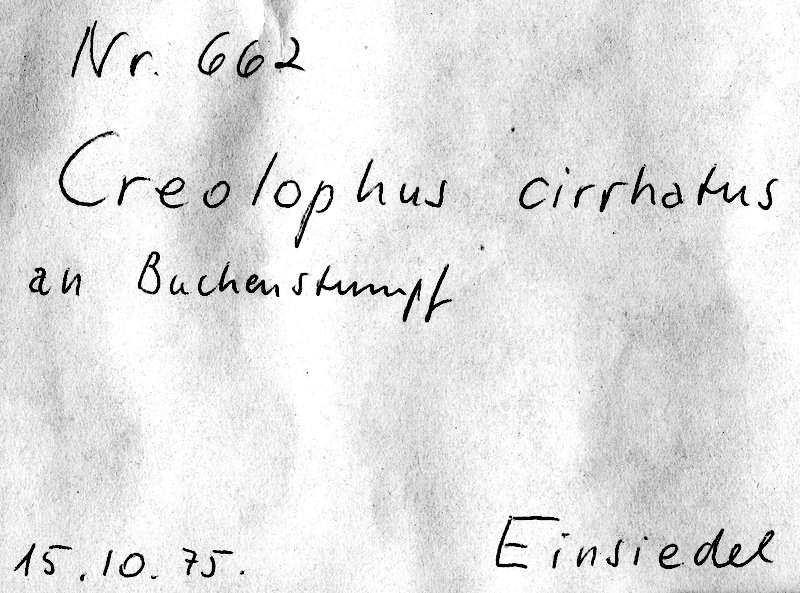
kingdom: Fungi
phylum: Basidiomycota
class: Agaricomycetes
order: Russulales
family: Hericiaceae
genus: Hericium
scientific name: Hericium cirrhatum
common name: Tiered tooth
